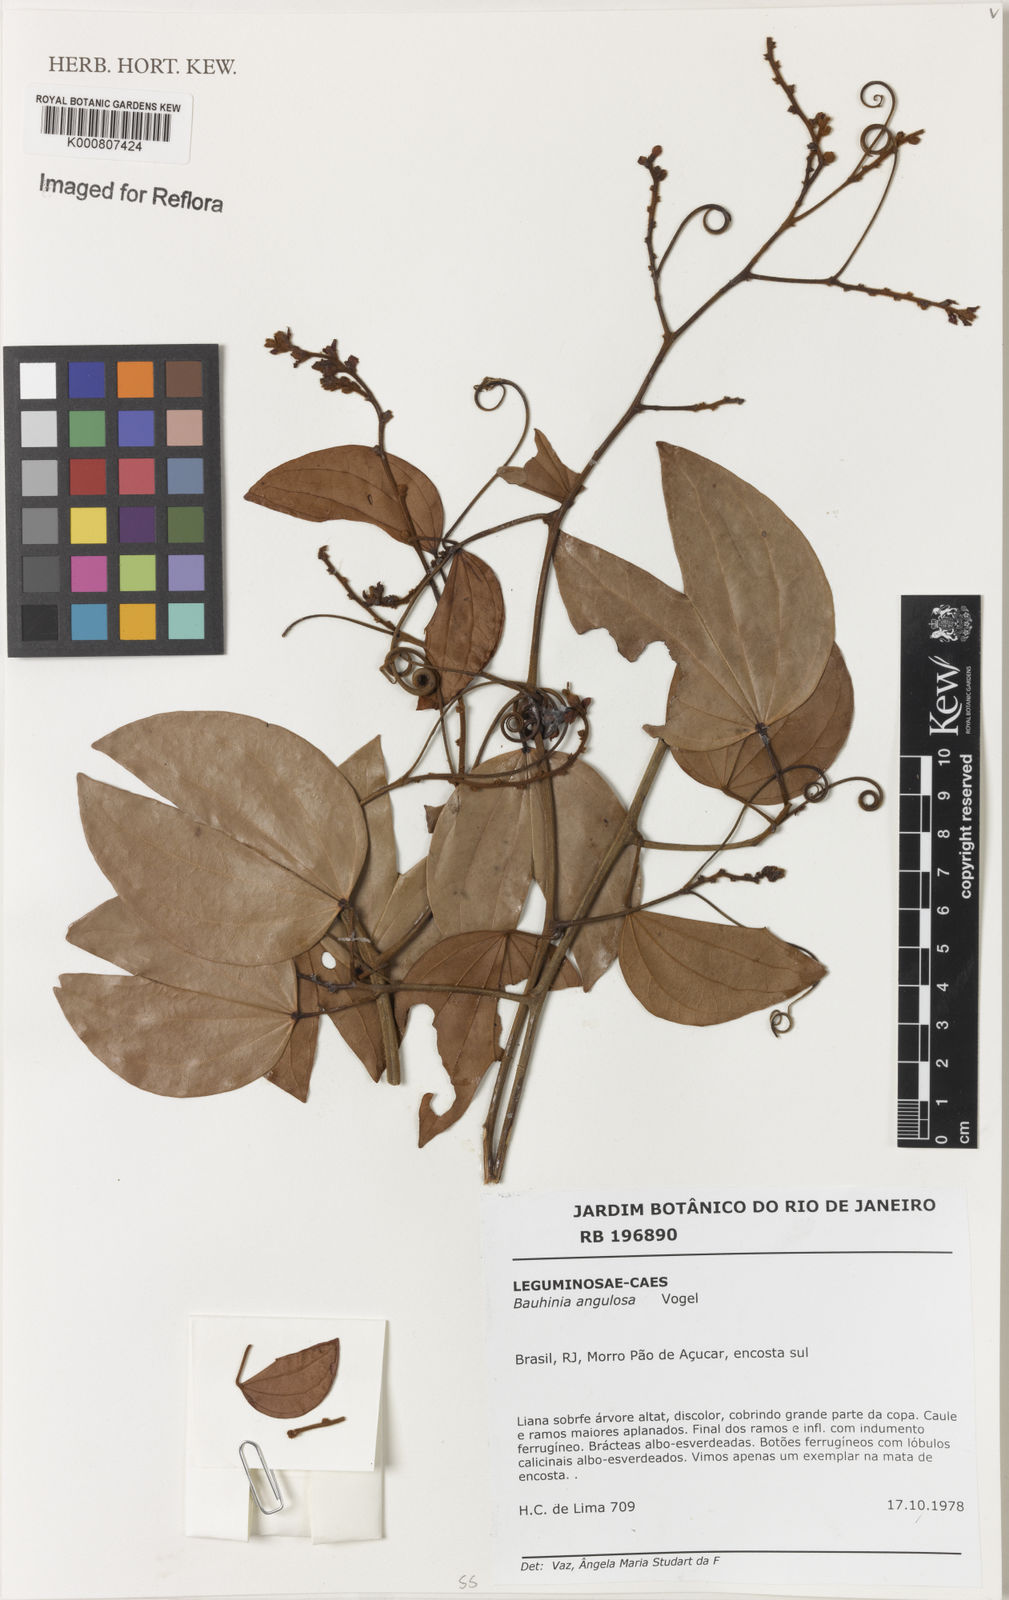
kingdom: Plantae
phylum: Tracheophyta
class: Magnoliopsida
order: Fabales
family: Fabaceae
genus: Schnella
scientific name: Schnella angulosa
